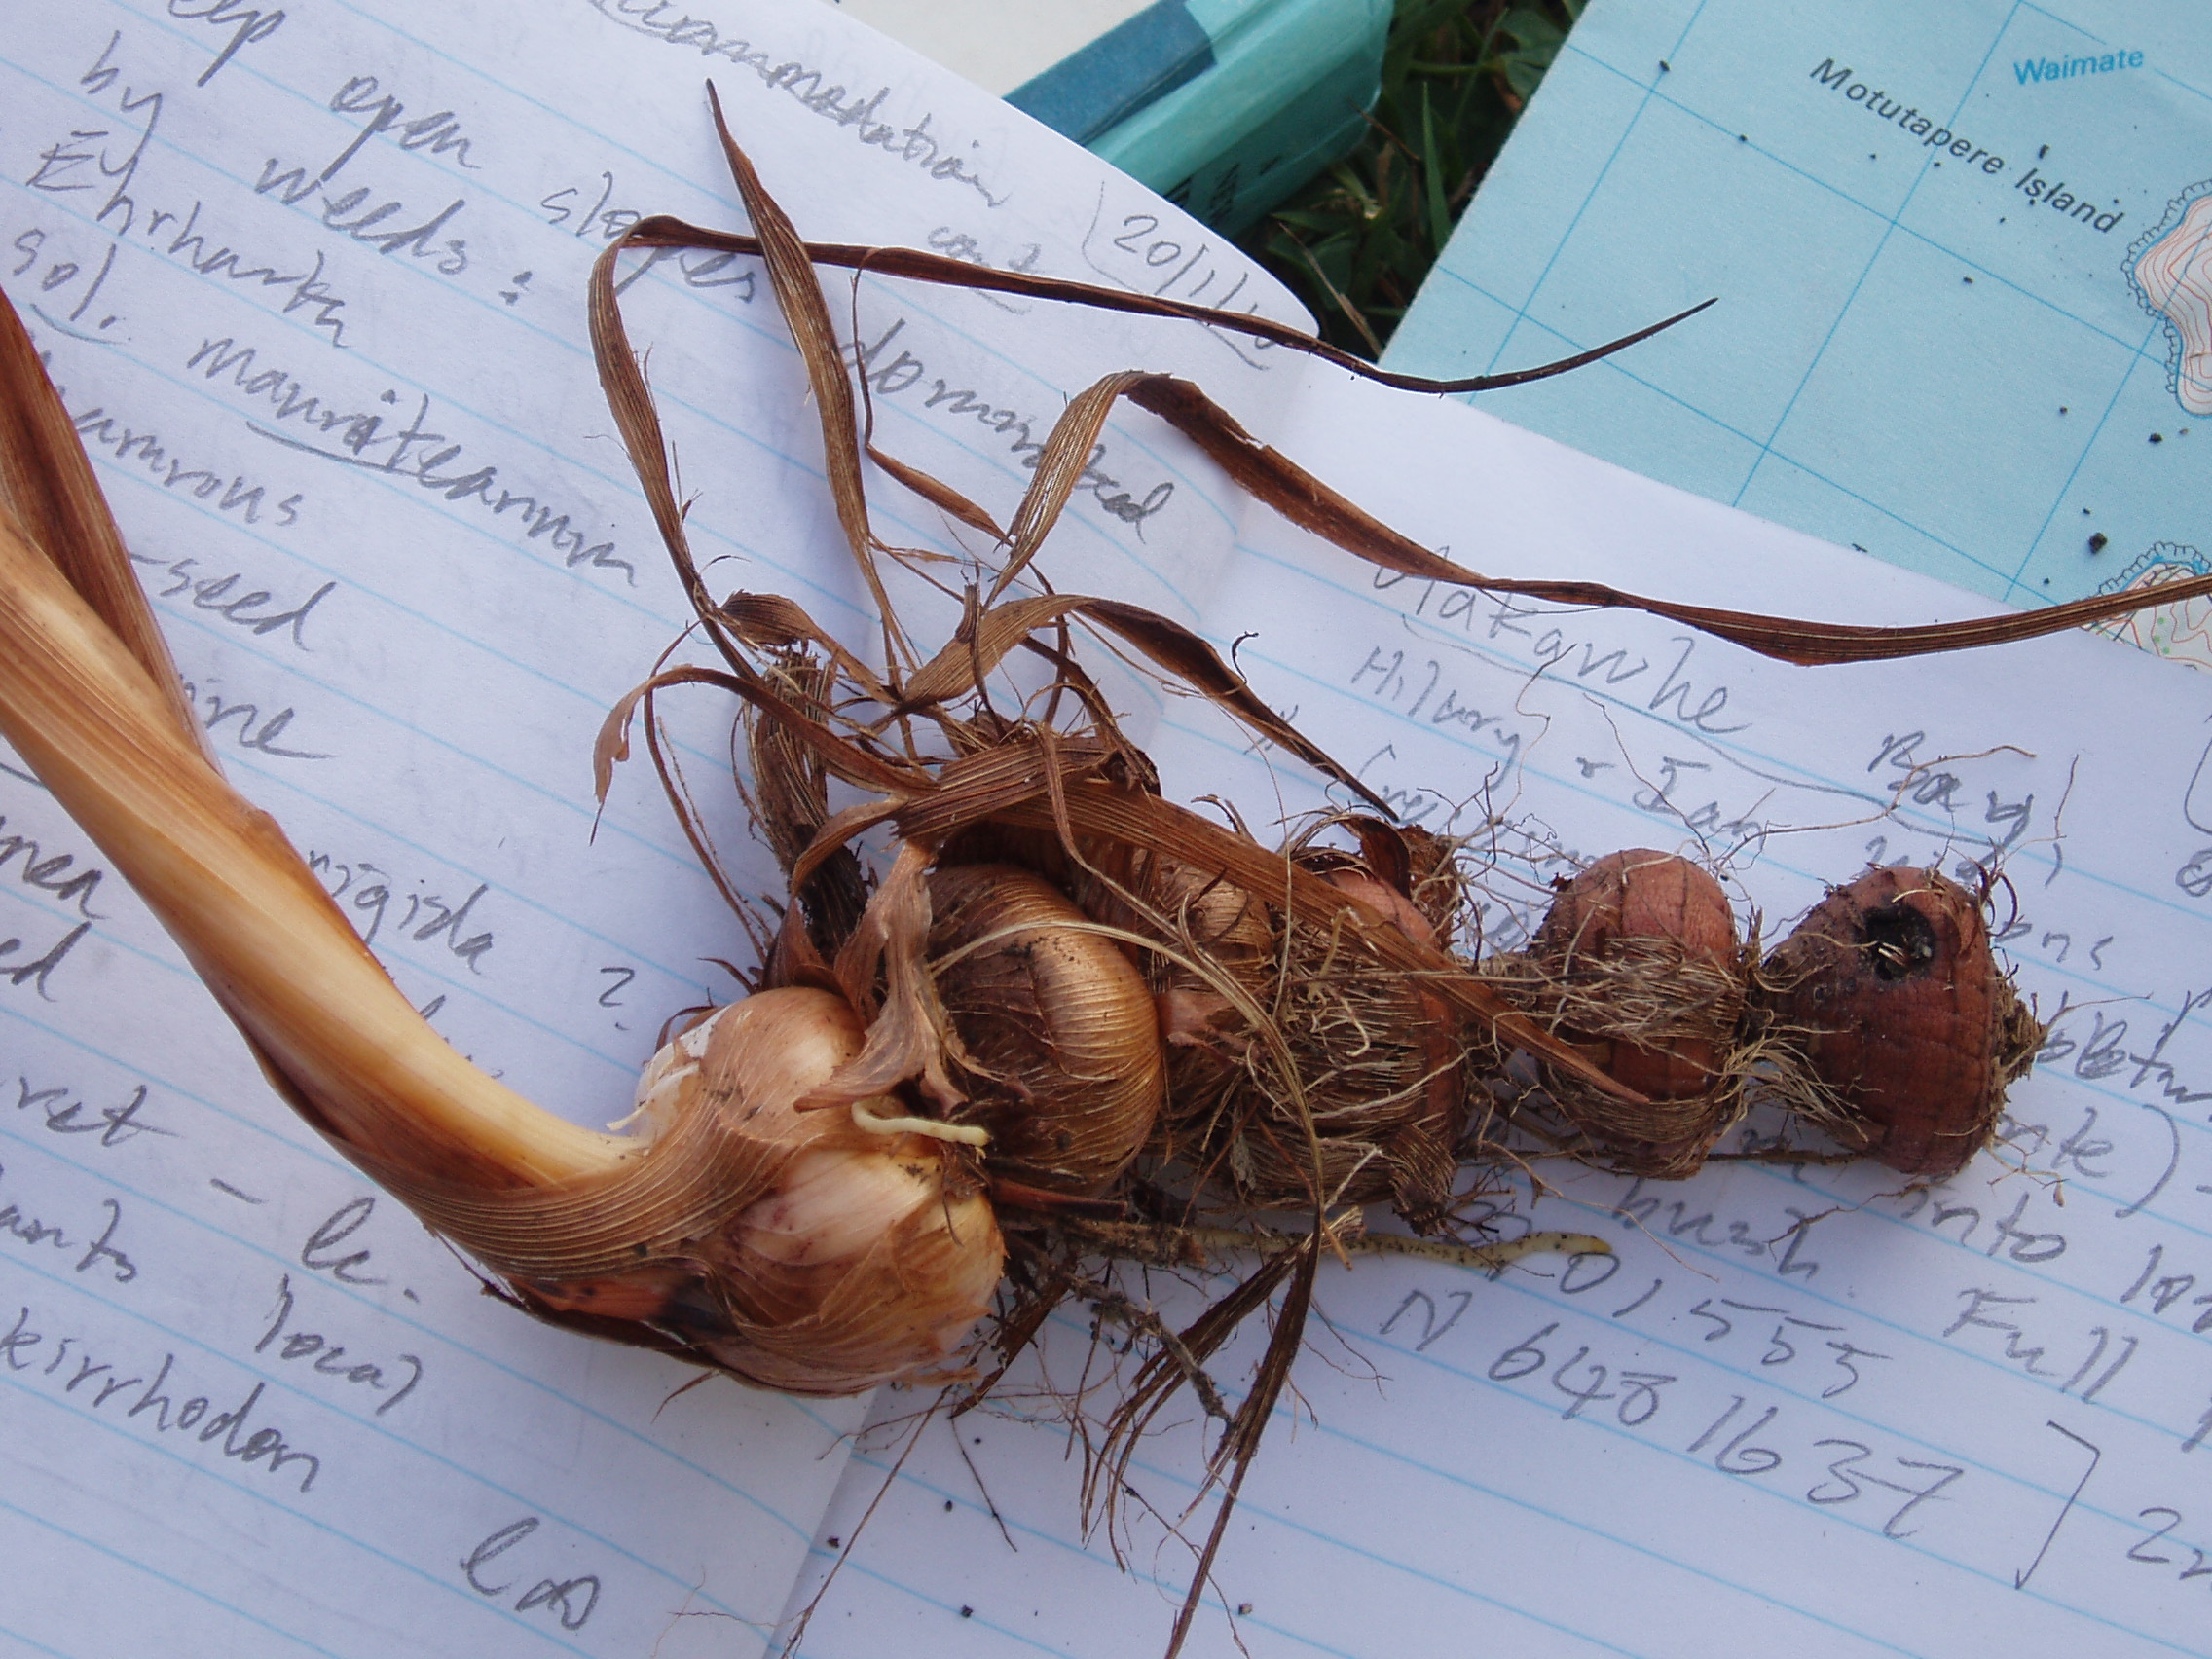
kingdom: Chromista
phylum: Ochrophyta
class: Phaeophyceae
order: Ectocarpales
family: Chordariaceae
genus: Tinocladia
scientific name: Tinocladia novae-zelandiae
